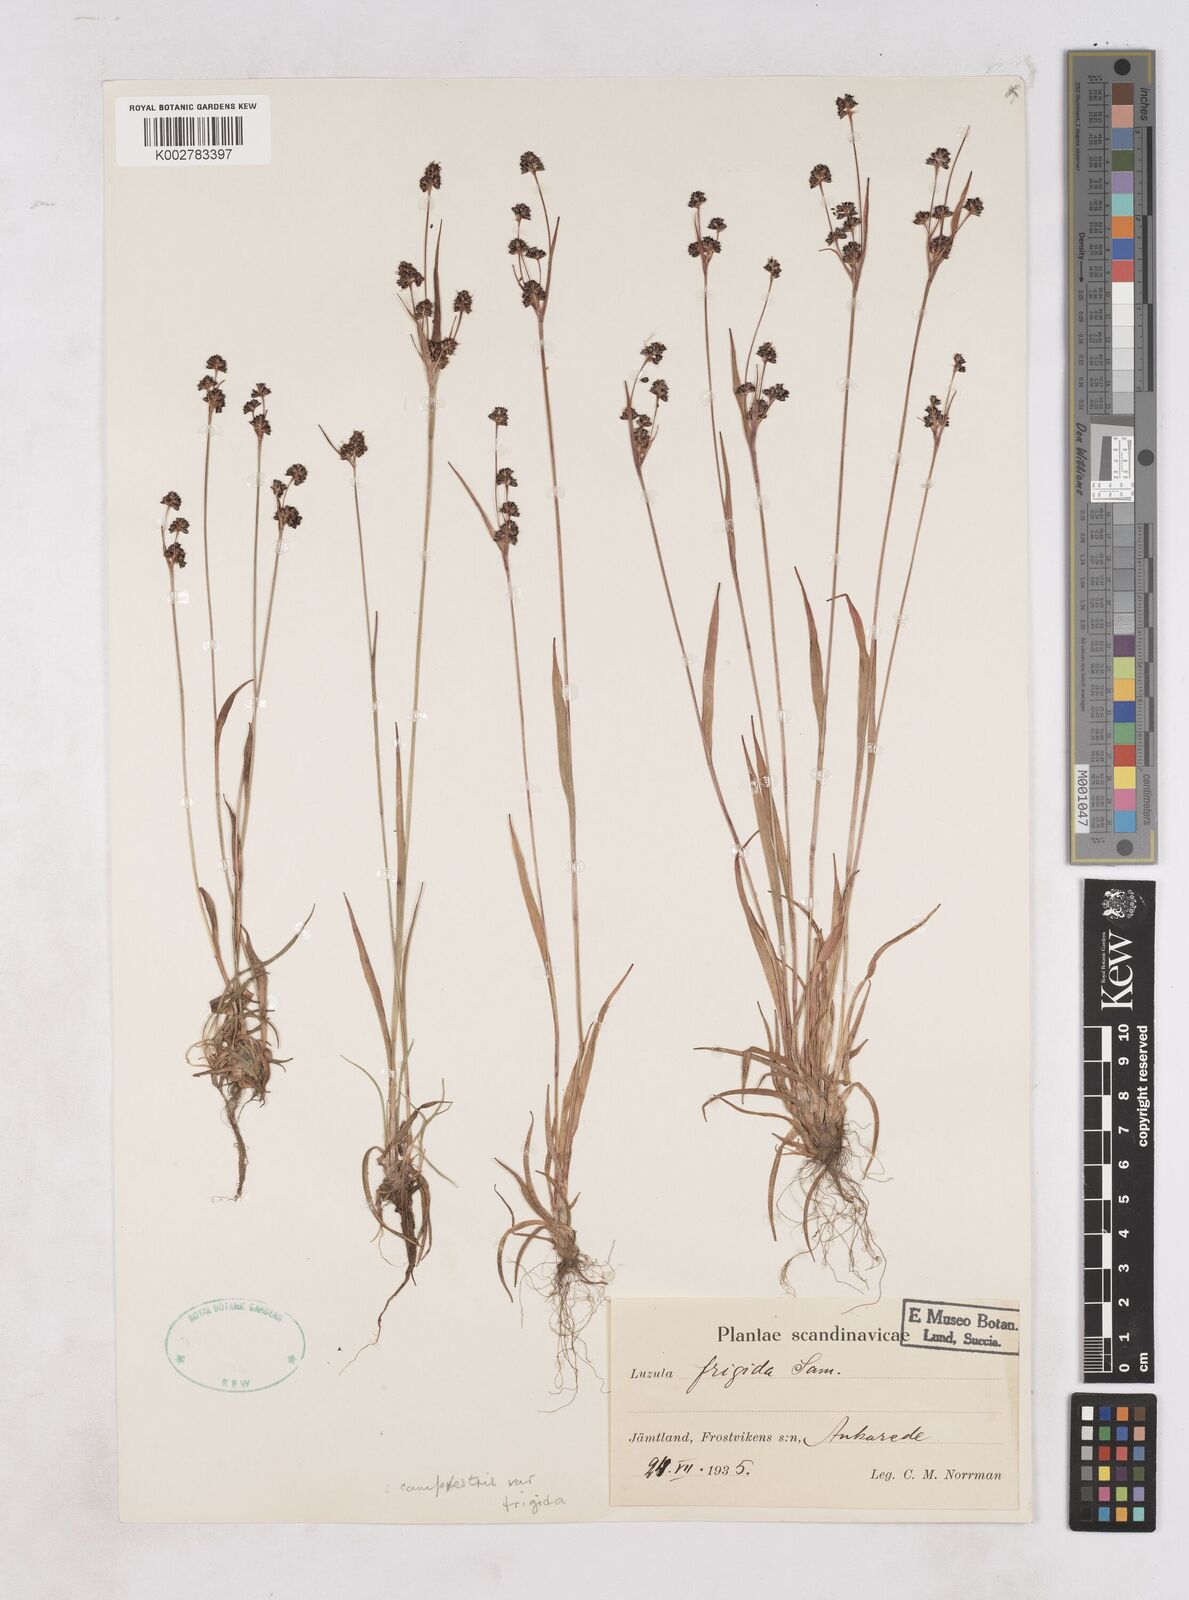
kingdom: Plantae
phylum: Tracheophyta
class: Liliopsida
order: Poales
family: Juncaceae
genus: Luzula
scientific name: Luzula multiflora
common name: Heath wood-rush
